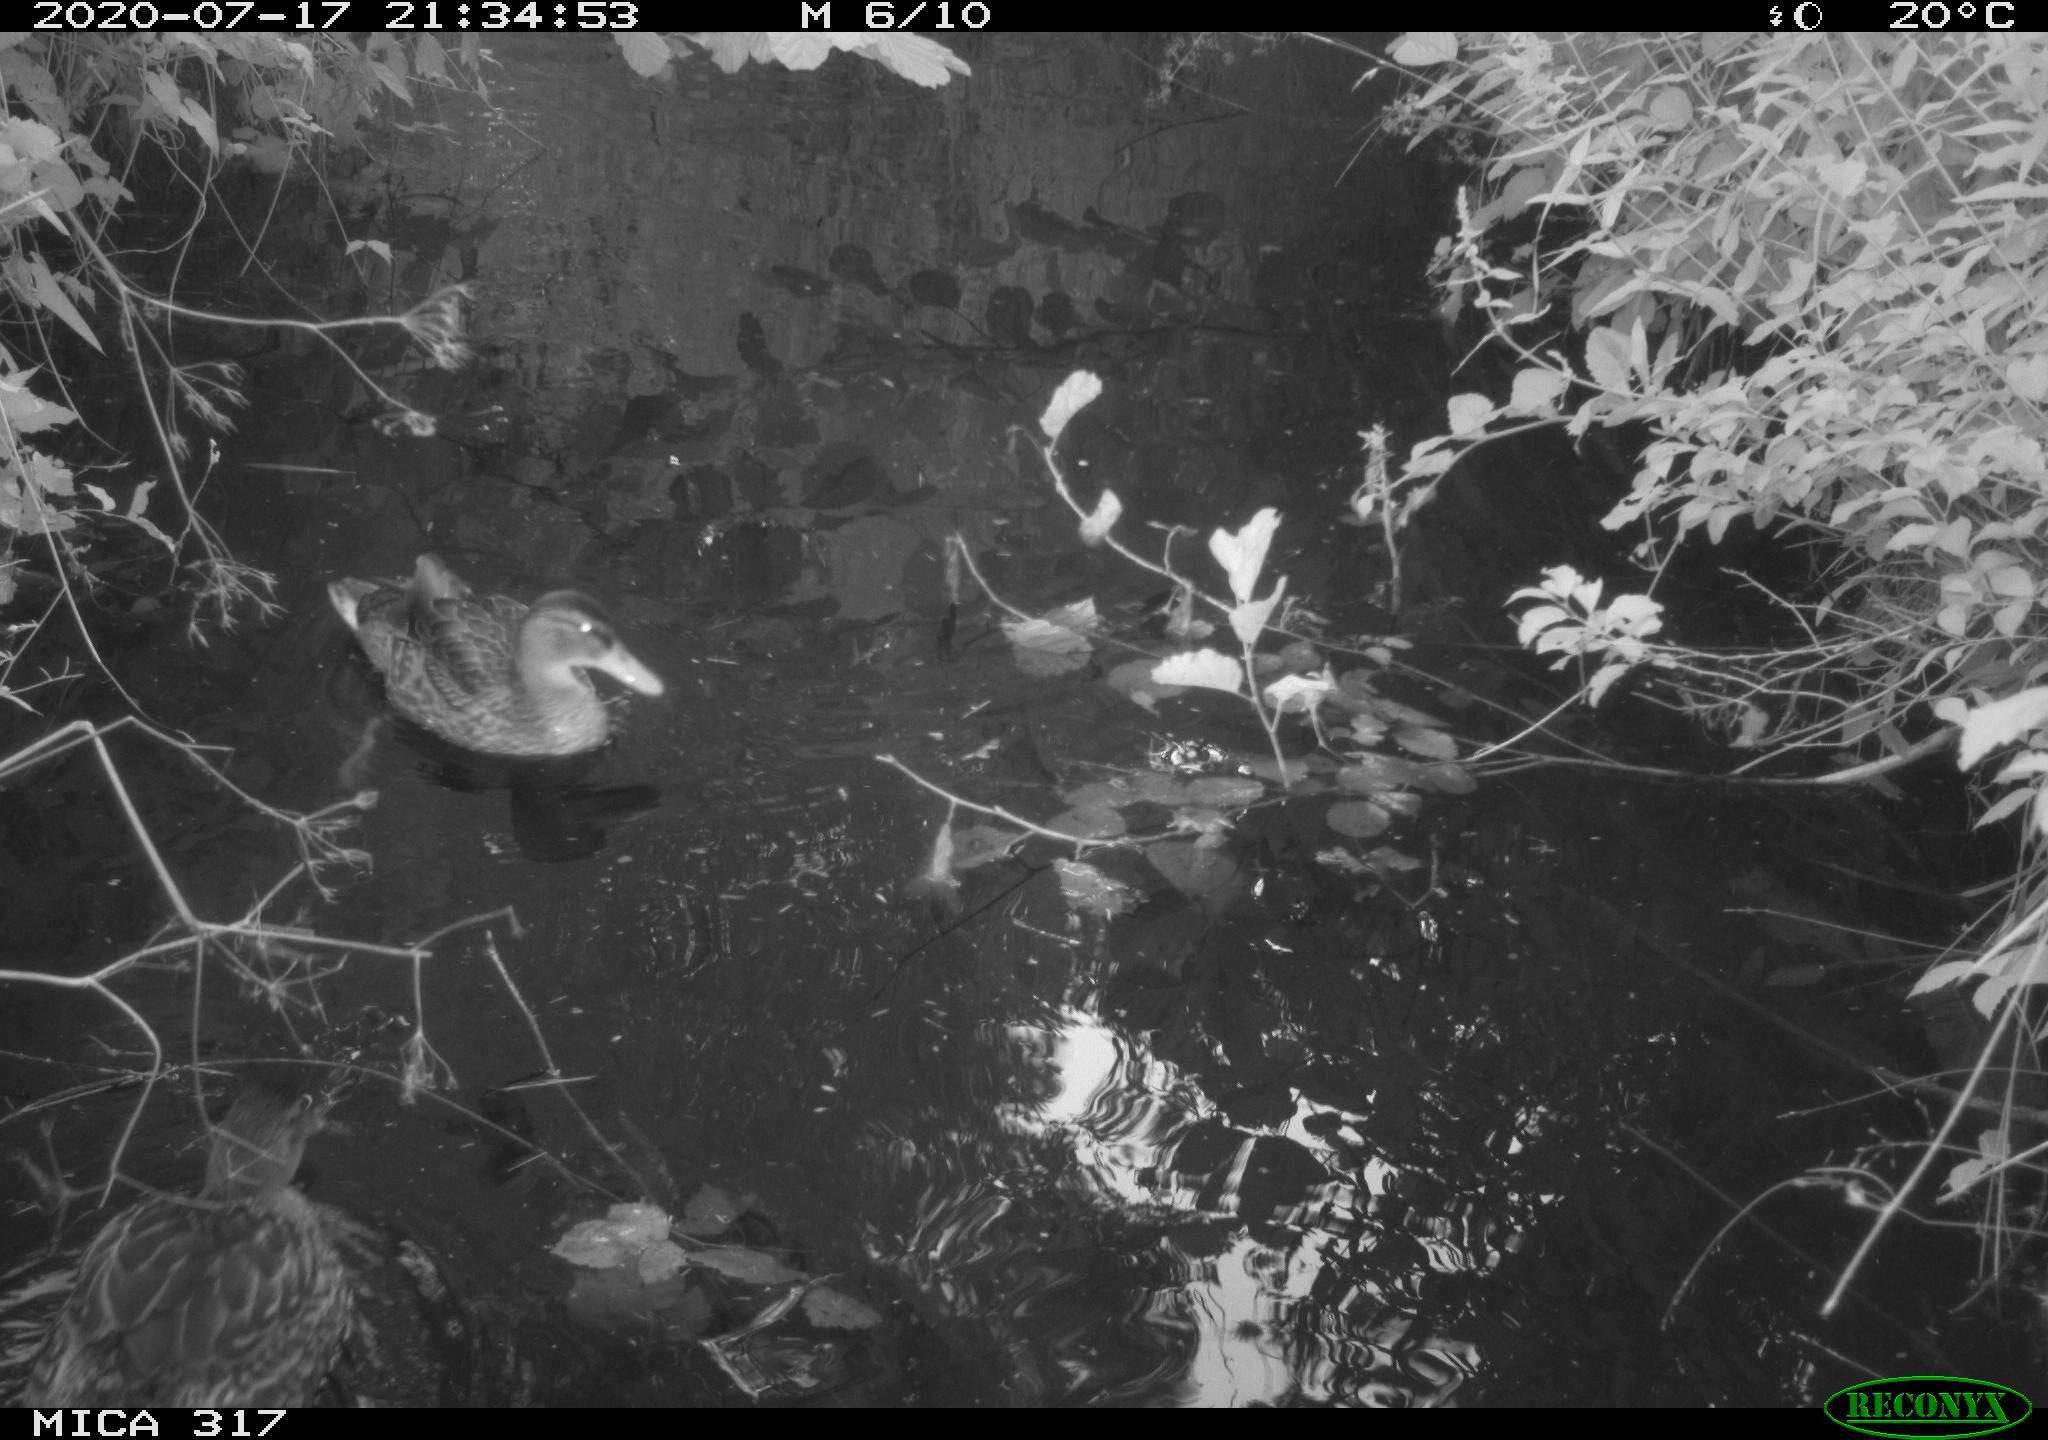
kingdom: Animalia
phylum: Chordata
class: Aves
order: Anseriformes
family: Anatidae
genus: Anas
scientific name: Anas platyrhynchos
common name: Mallard
